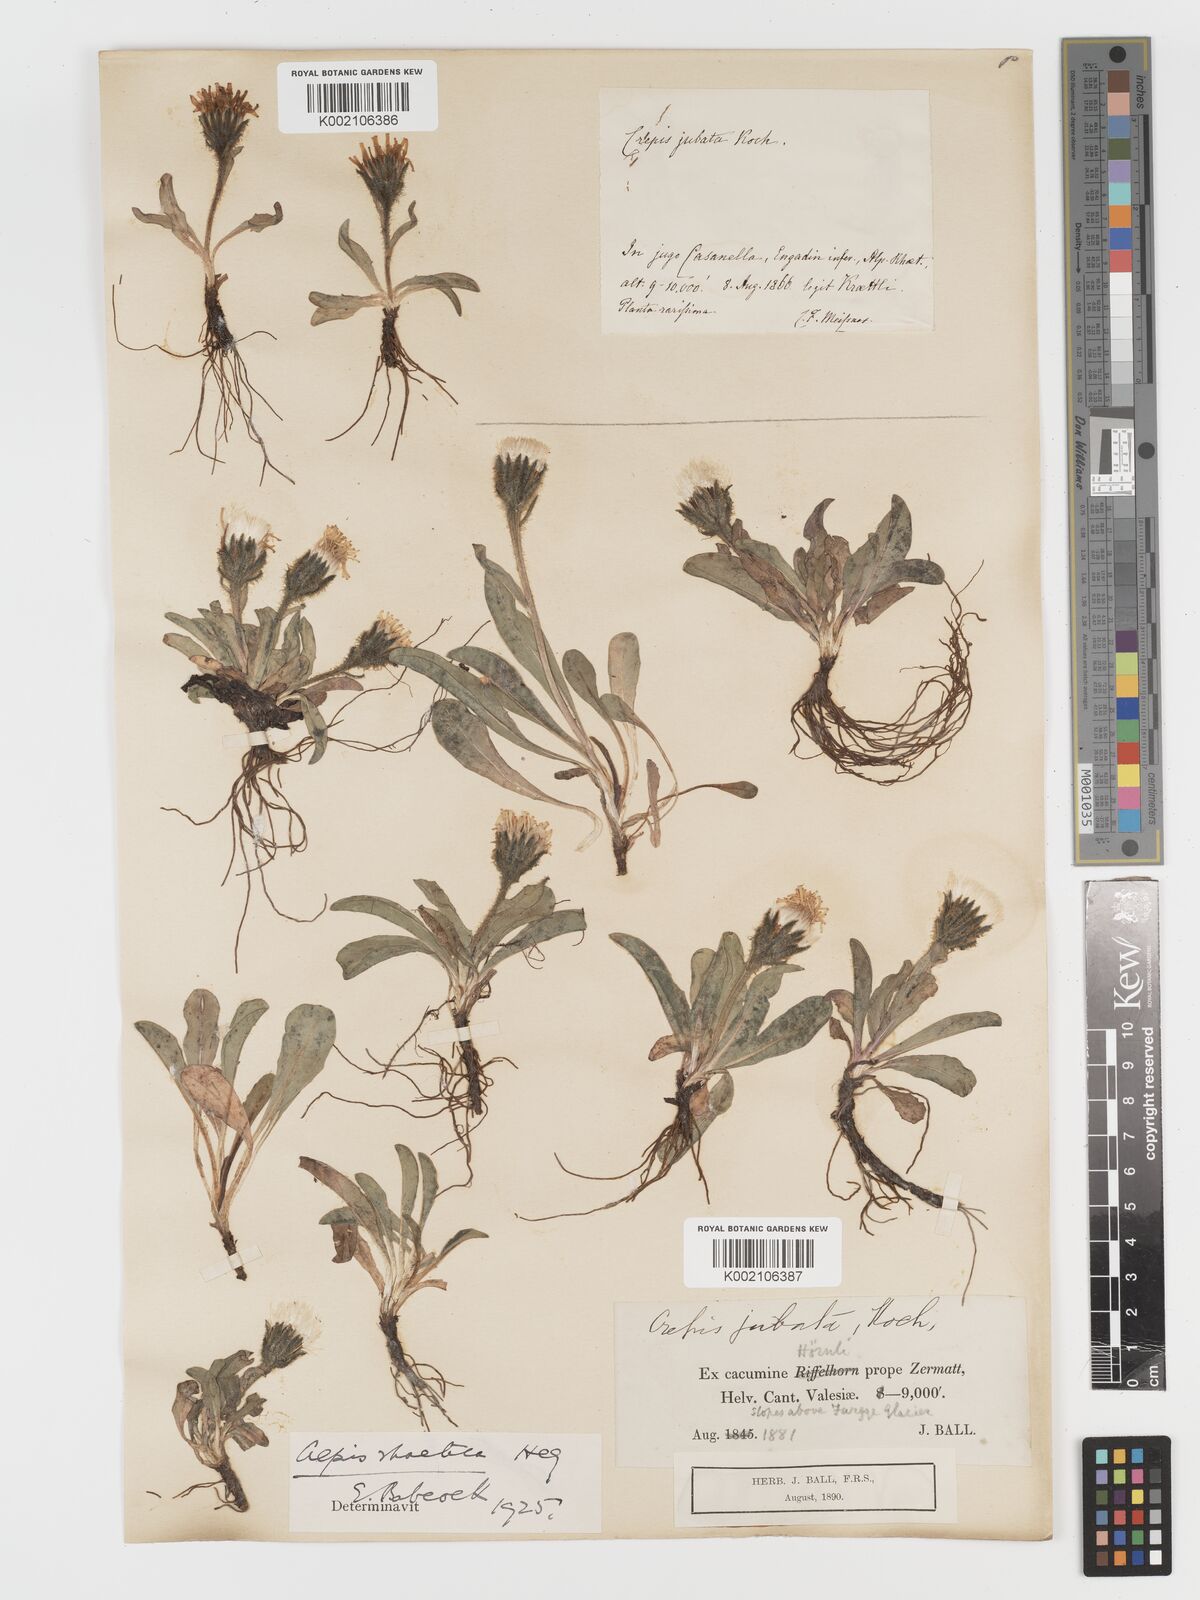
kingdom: Plantae
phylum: Tracheophyta
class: Magnoliopsida
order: Asterales
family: Asteraceae
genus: Crepis
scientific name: Crepis rhaetica
